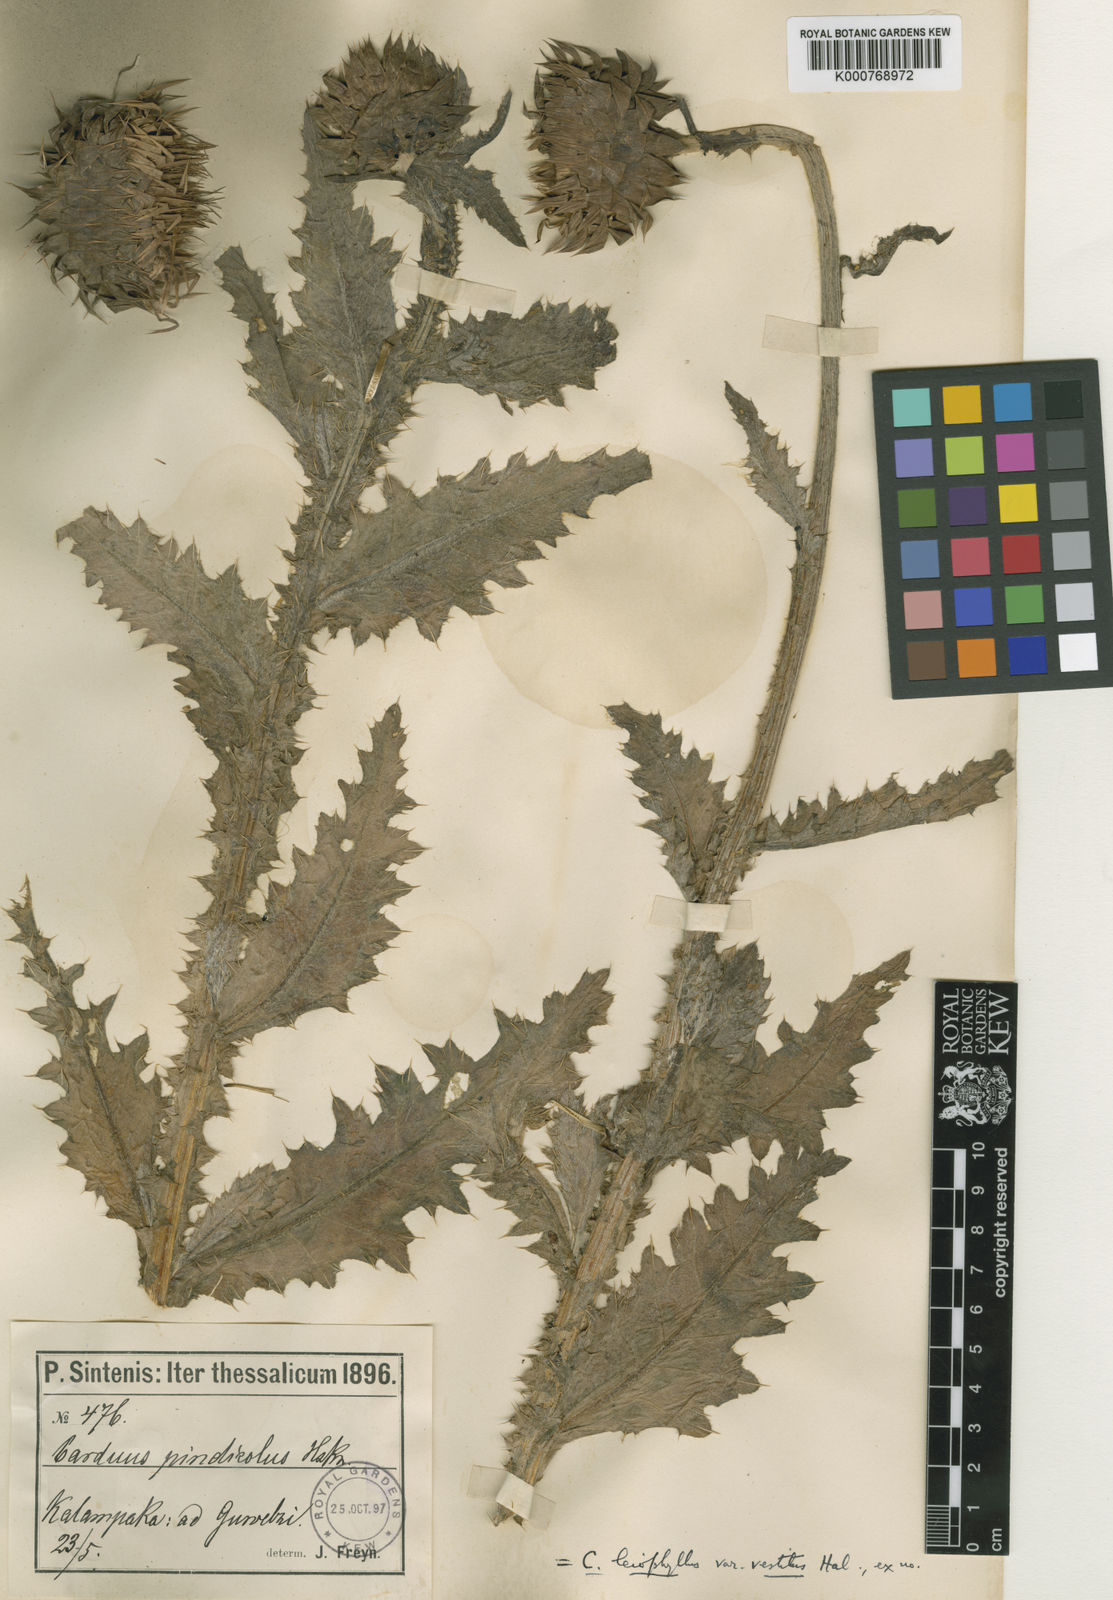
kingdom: Plantae
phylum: Tracheophyta
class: Magnoliopsida
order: Asterales
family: Asteraceae
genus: Carduus
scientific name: Carduus nutans
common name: Musk thistle
